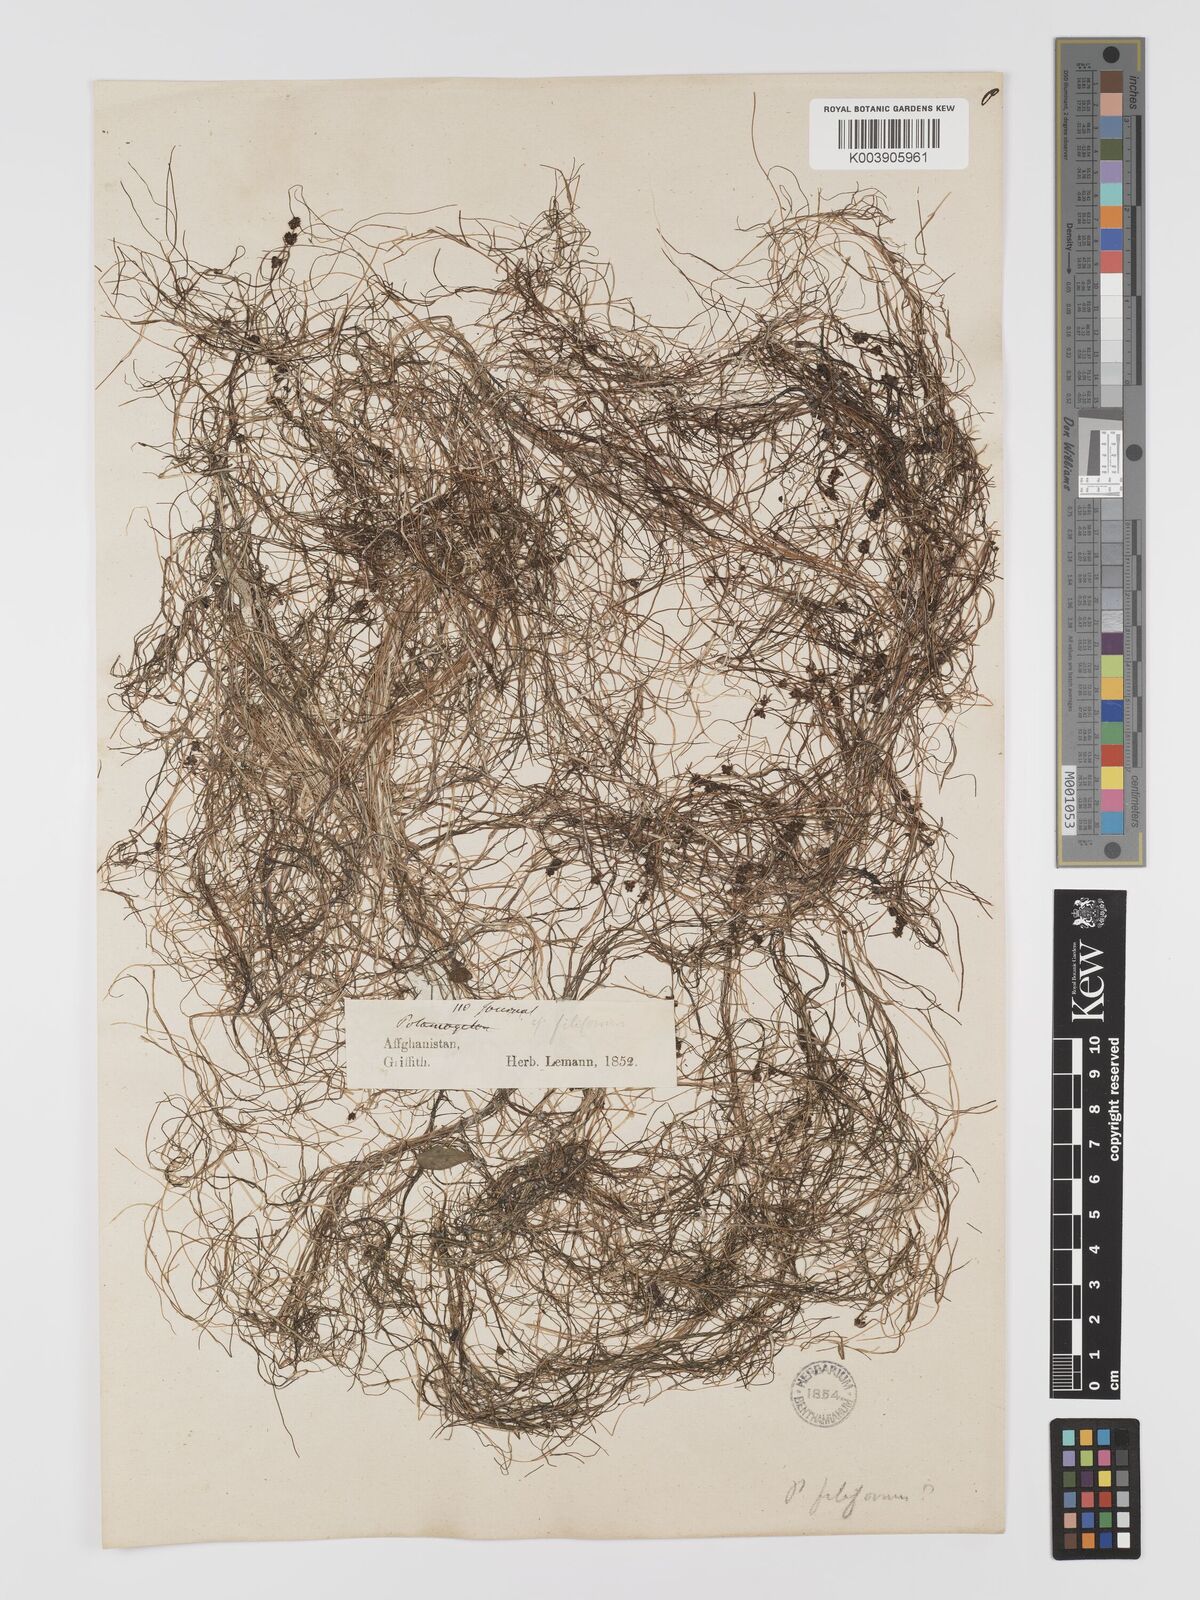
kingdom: Plantae
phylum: Tracheophyta
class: Liliopsida
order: Alismatales
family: Potamogetonaceae
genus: Potamogeton
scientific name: Potamogeton filiformis
